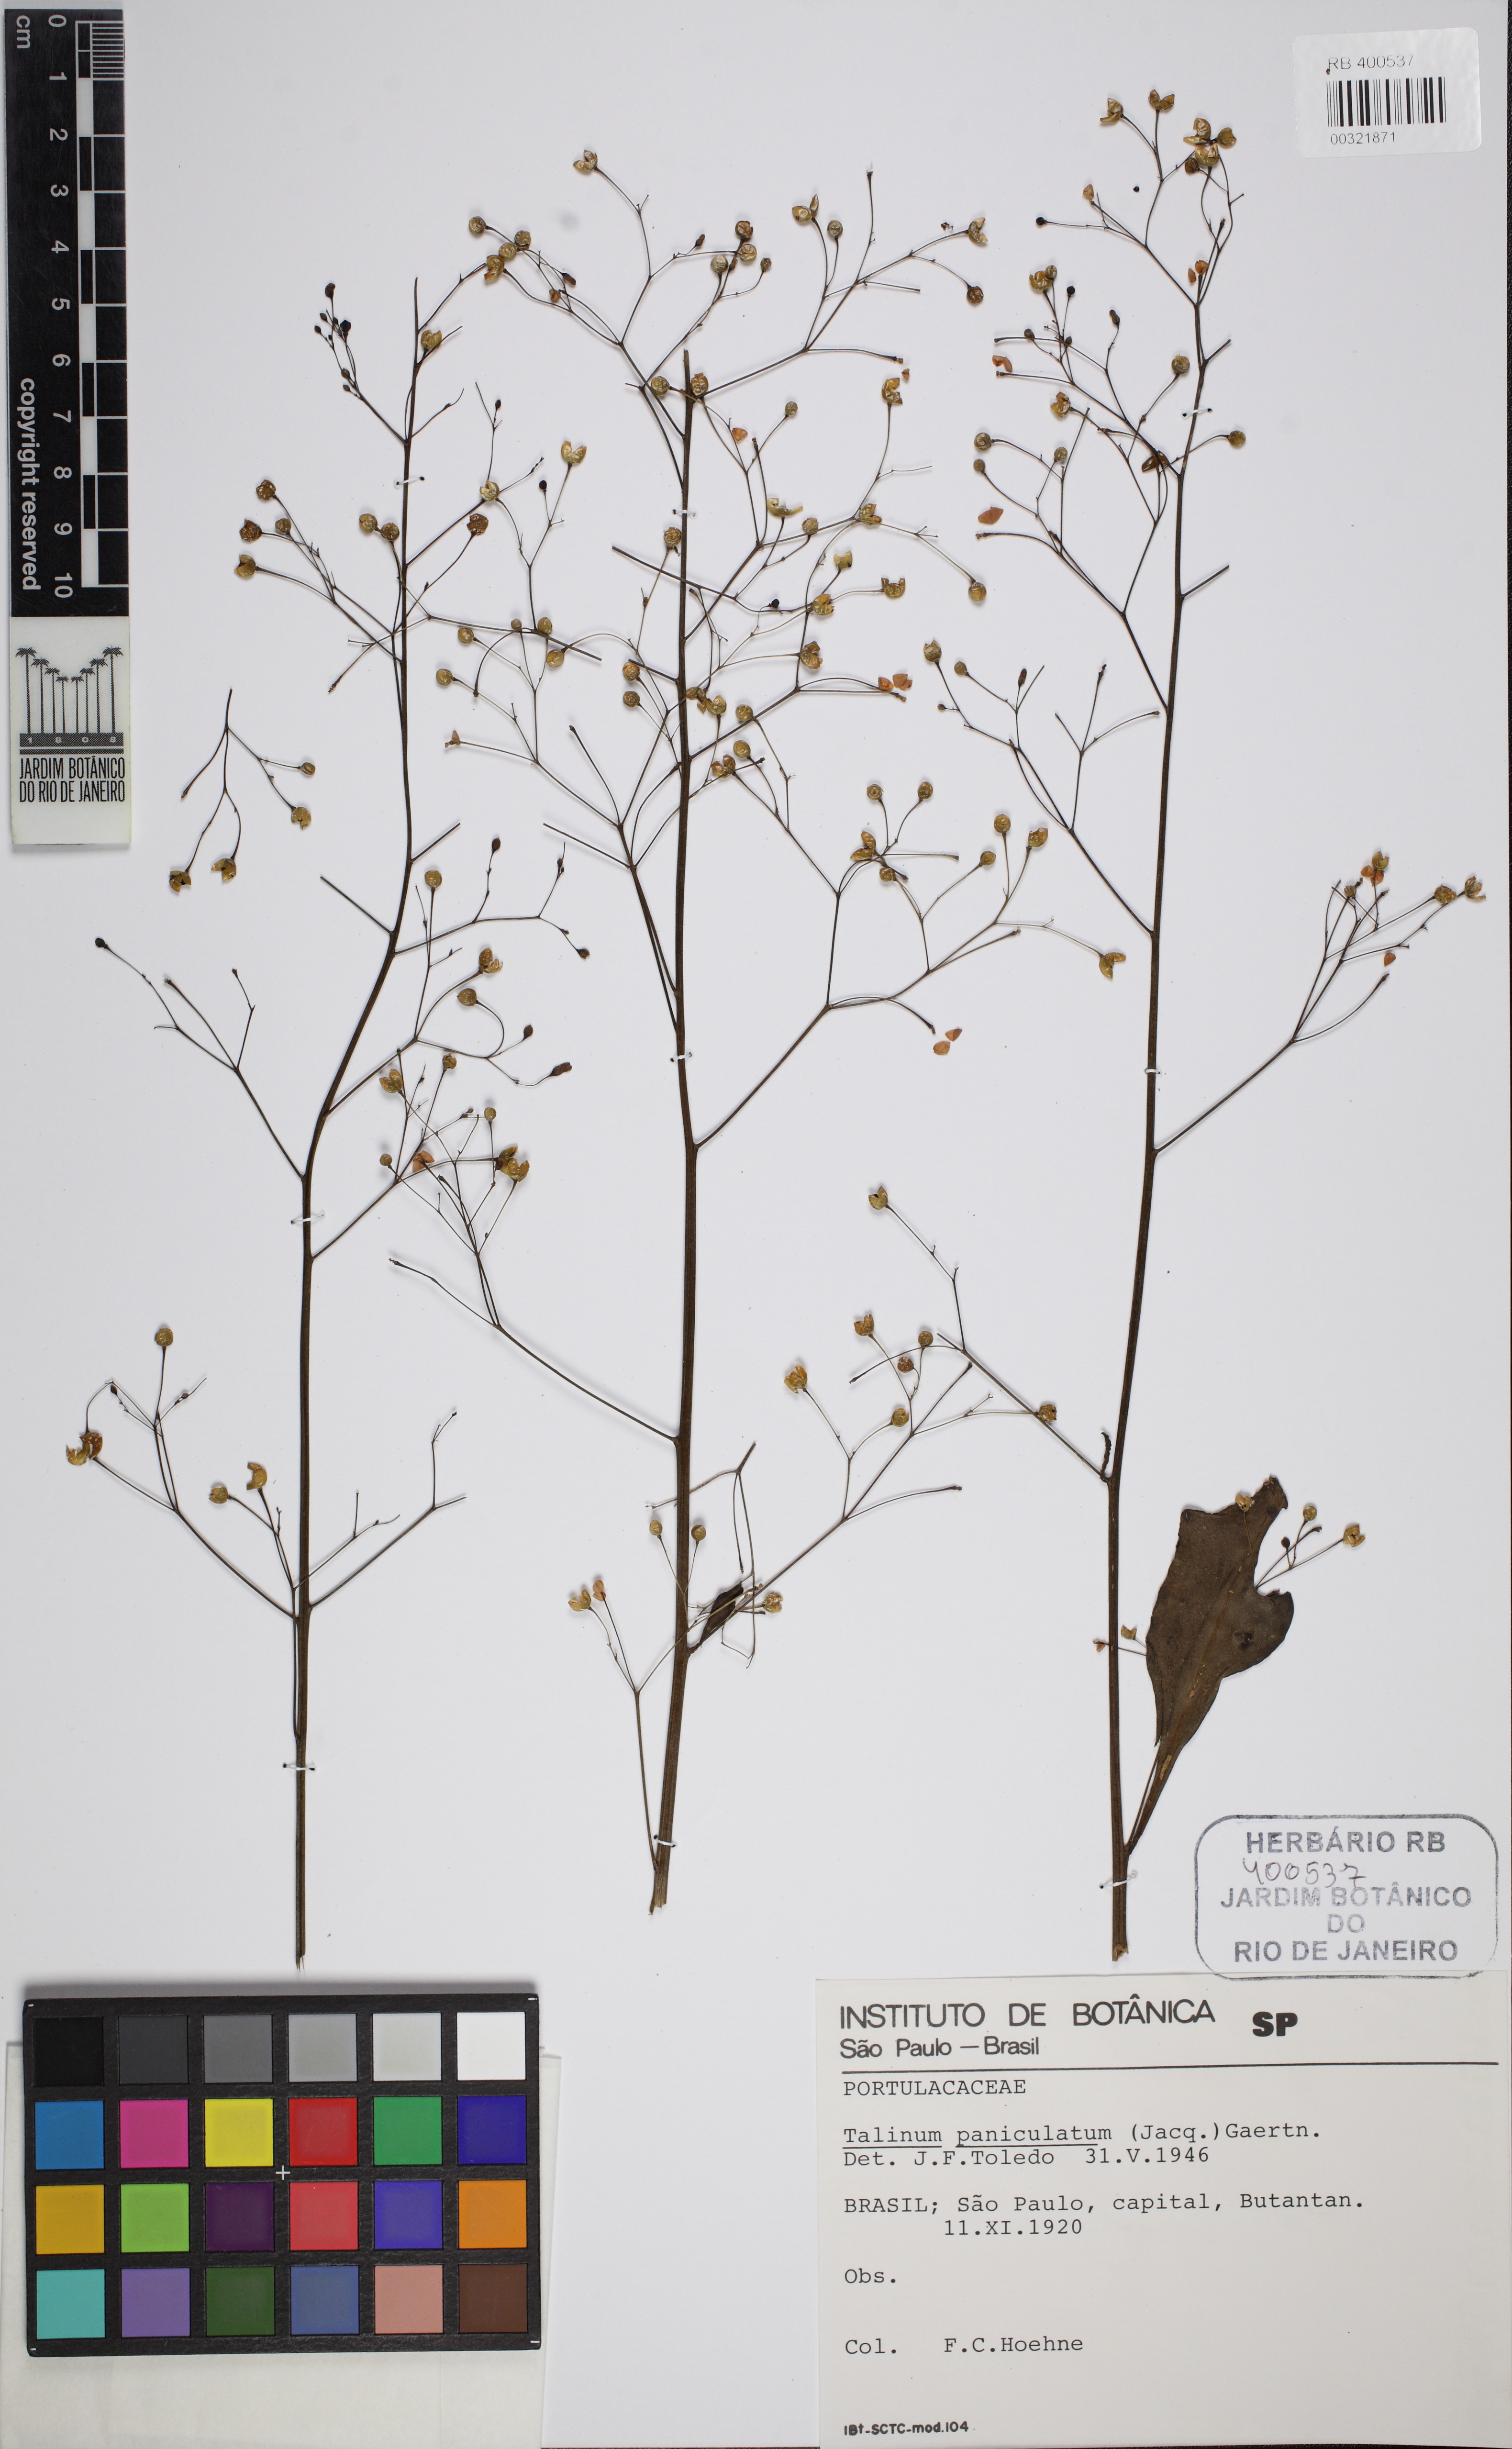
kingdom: Plantae
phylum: Tracheophyta
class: Magnoliopsida
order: Caryophyllales
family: Talinaceae
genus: Talinum
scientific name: Talinum paniculatum
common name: Jewels of opar
